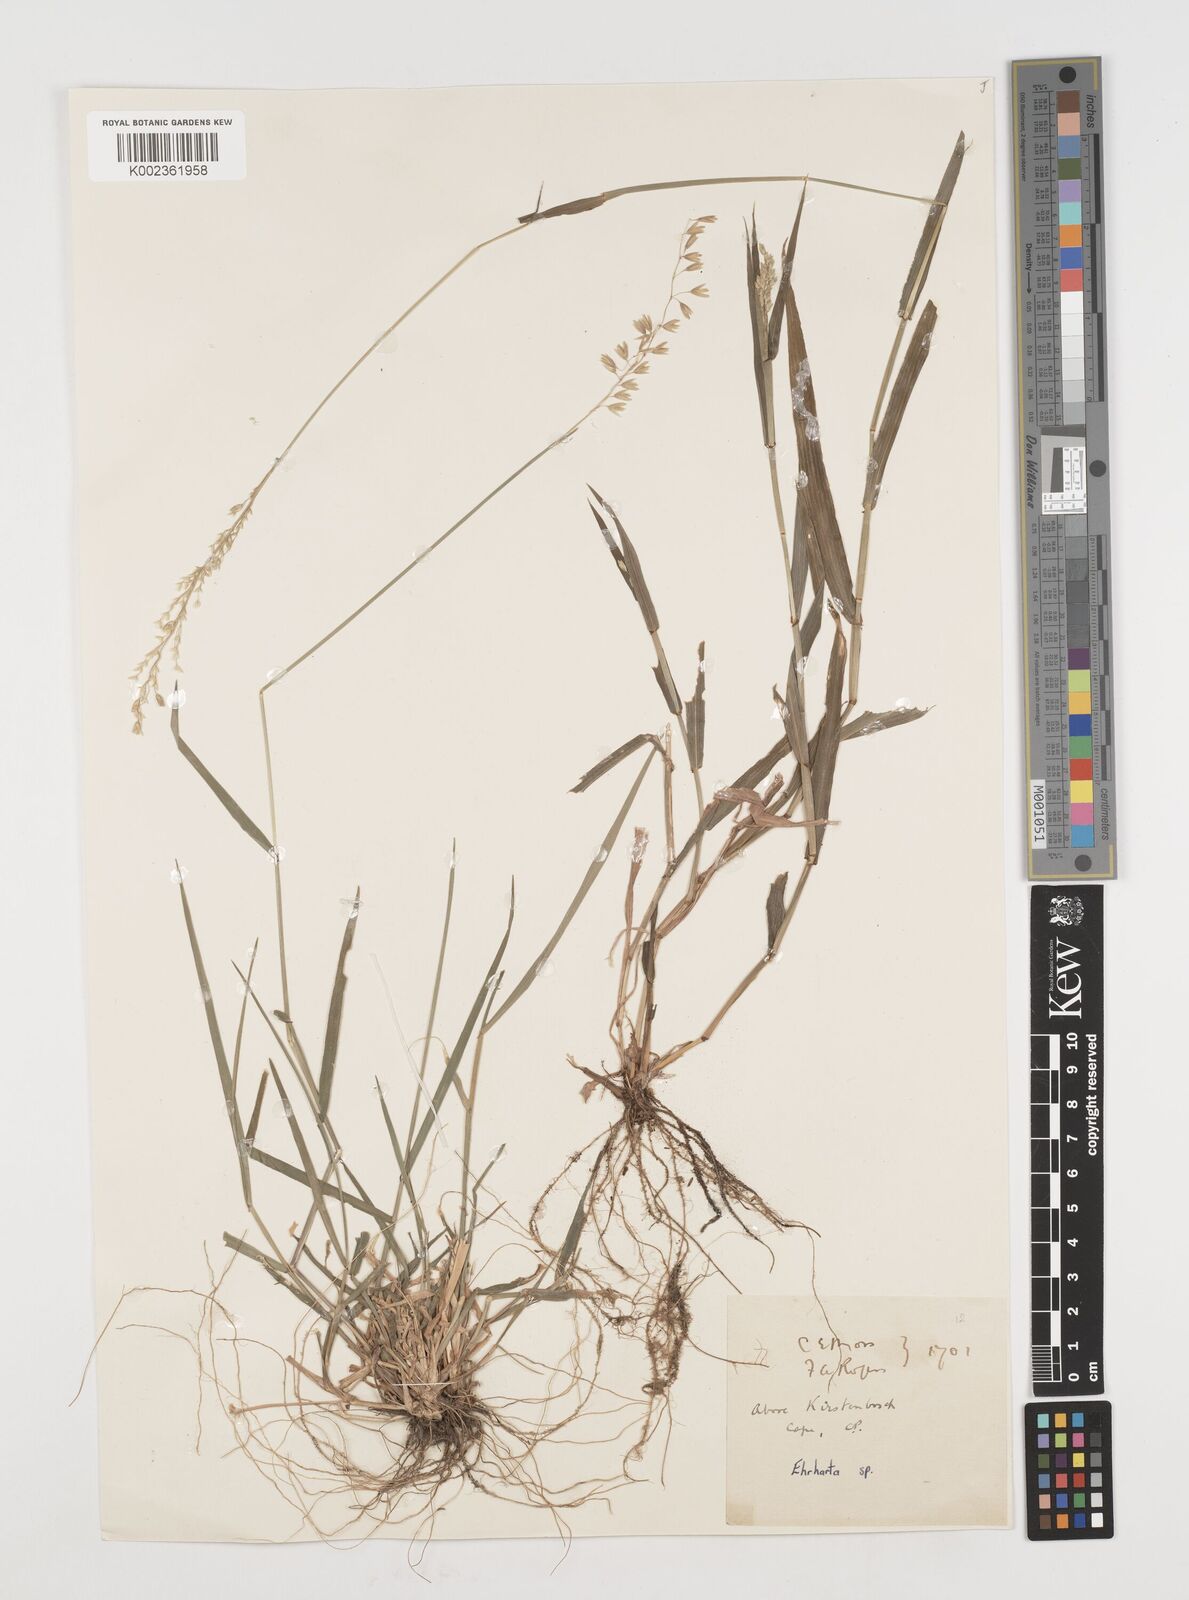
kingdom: Plantae
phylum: Tracheophyta
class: Liliopsida
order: Poales
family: Poaceae
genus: Ehrharta
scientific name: Ehrharta calycina
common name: Perennial veldtgrass
